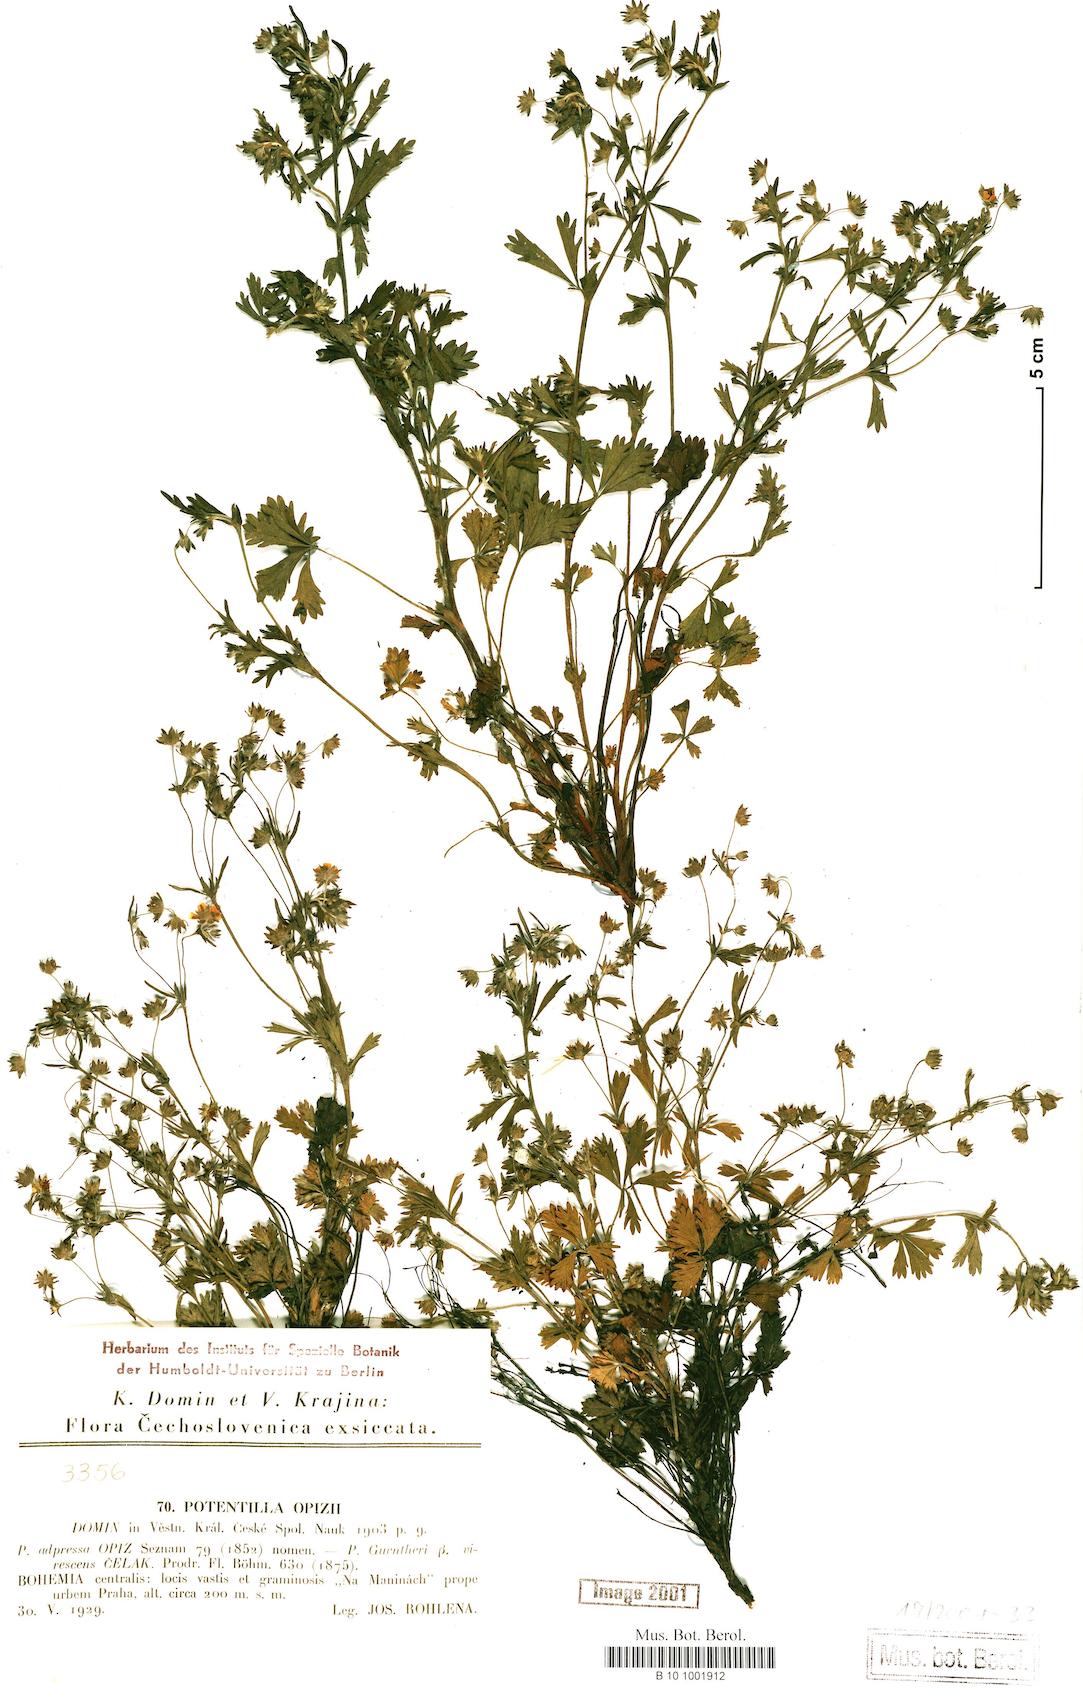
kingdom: Plantae
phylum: Tracheophyta
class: Magnoliopsida
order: Rosales
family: Rosaceae
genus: Potentilla
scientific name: Potentilla lindackeri
